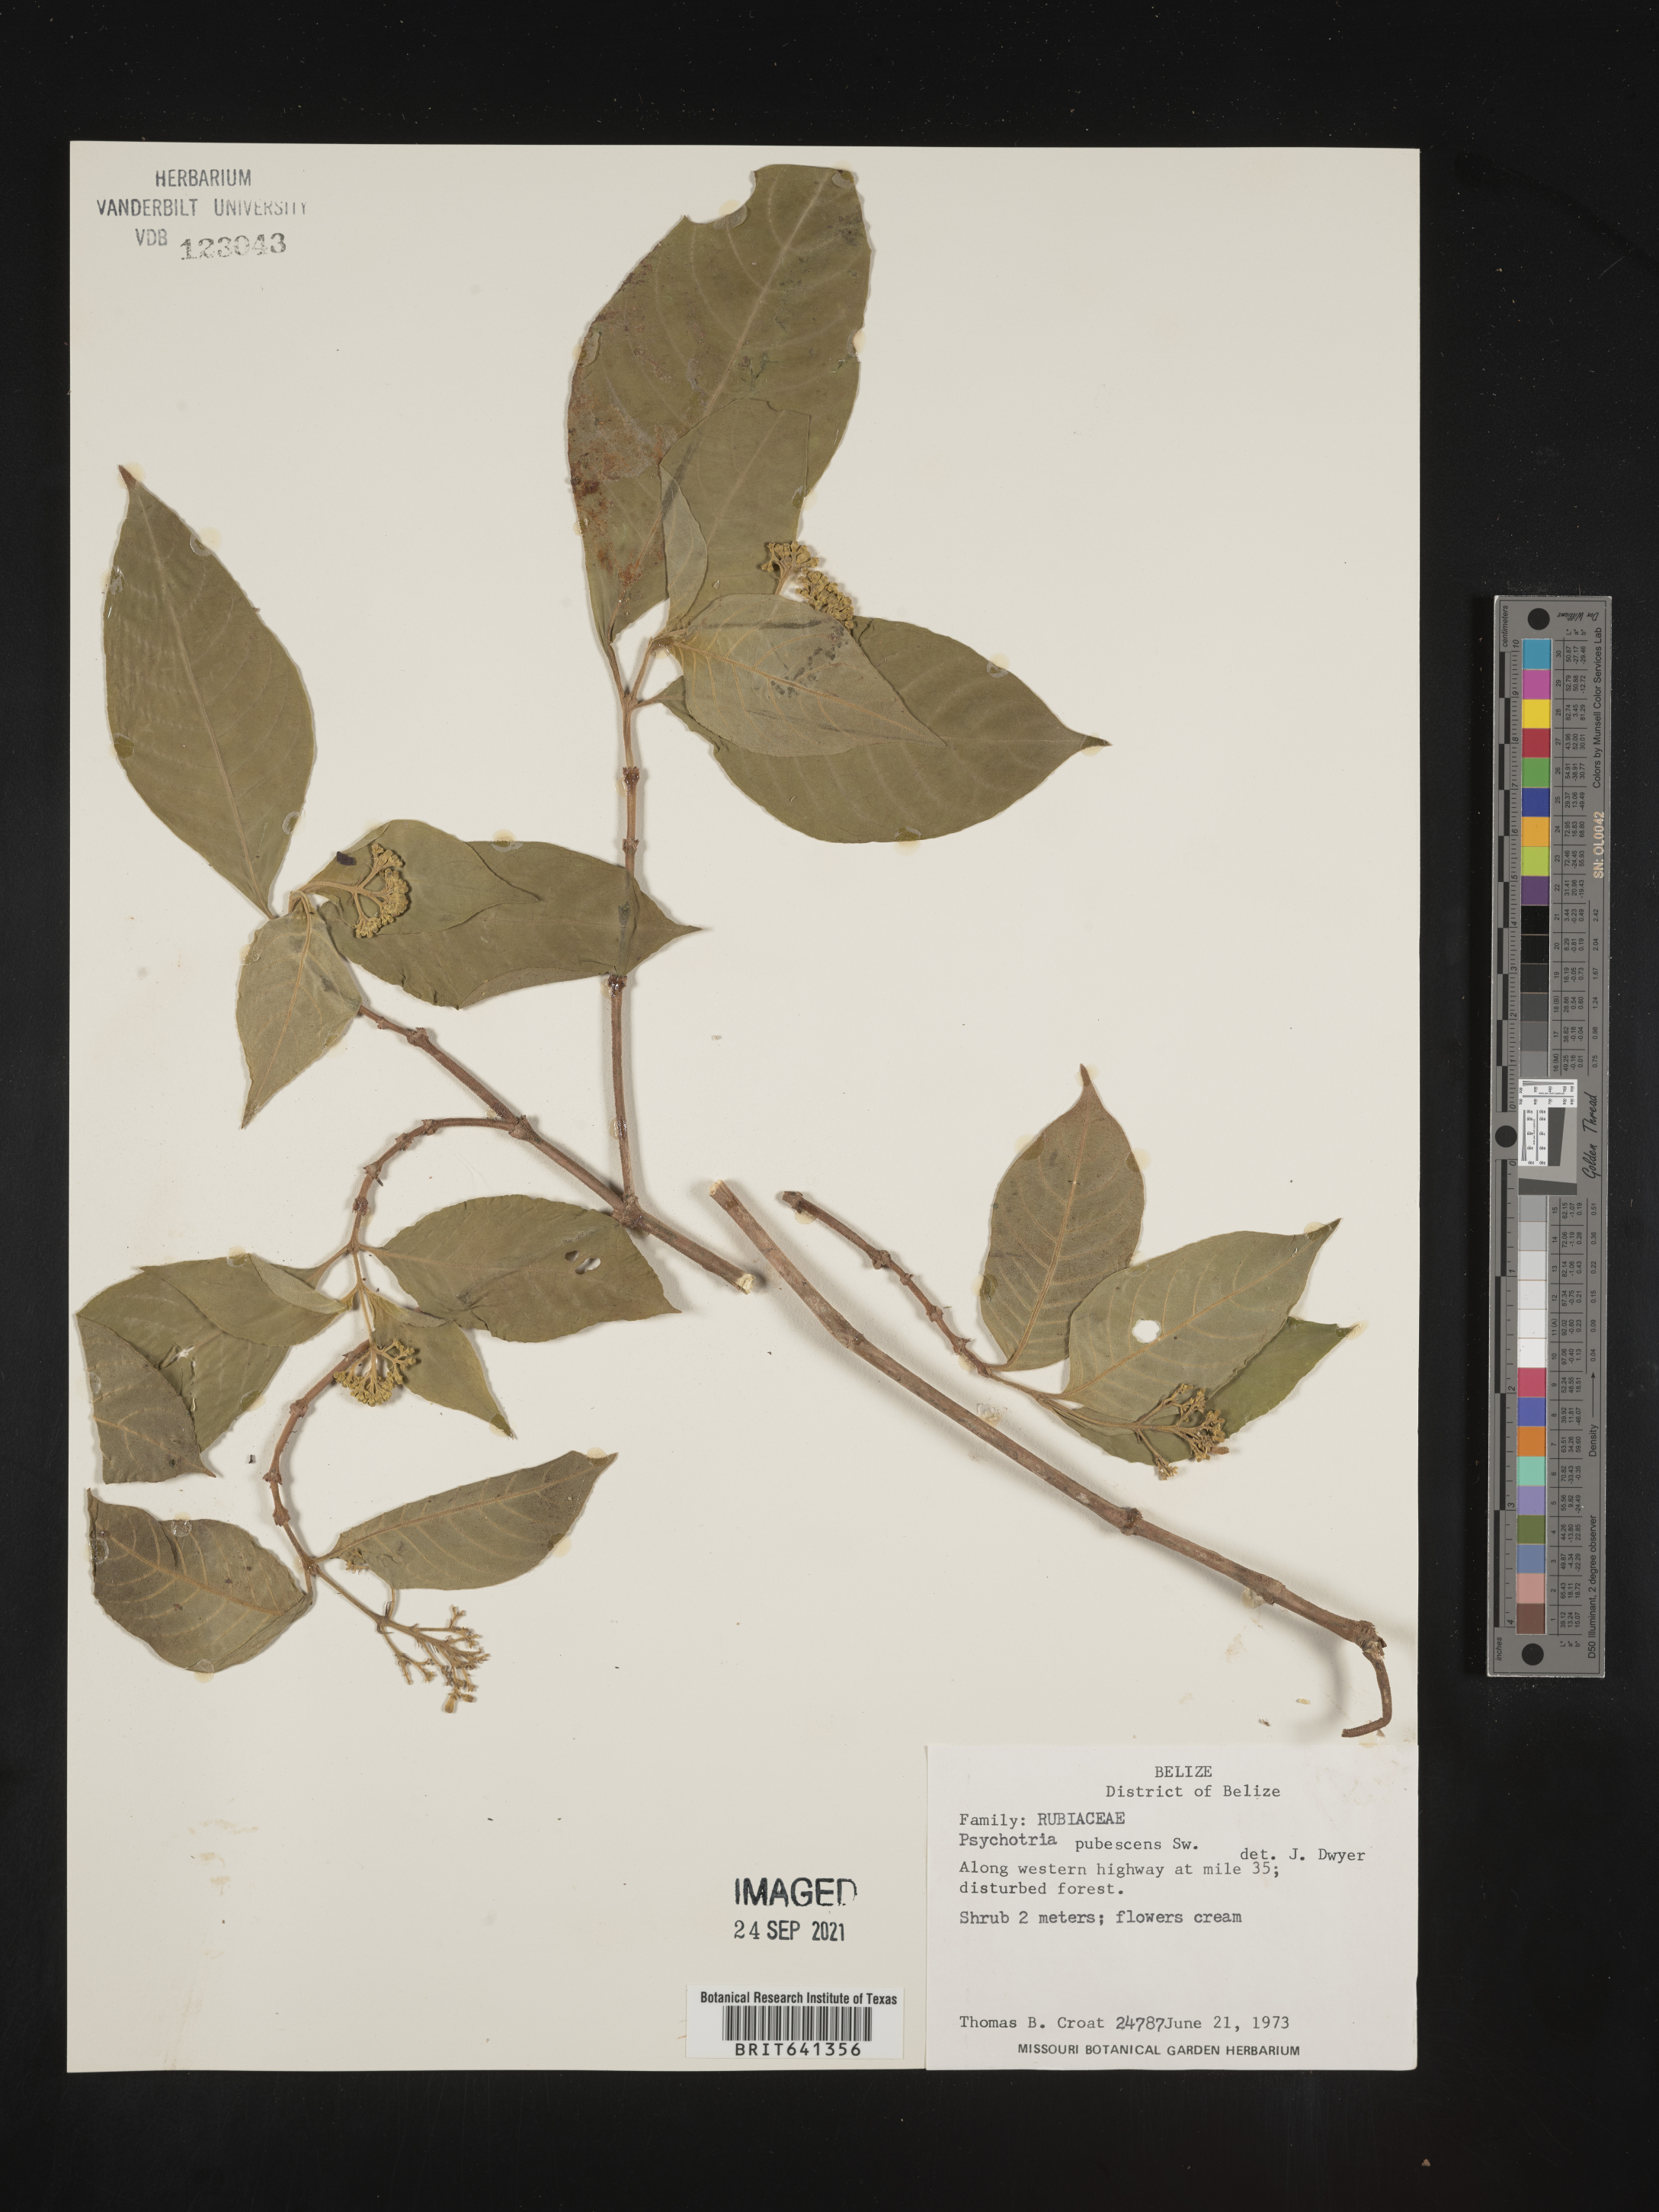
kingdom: Plantae
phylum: Tracheophyta
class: Magnoliopsida
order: Gentianales
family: Rubiaceae
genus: Psychotria
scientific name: Psychotria
